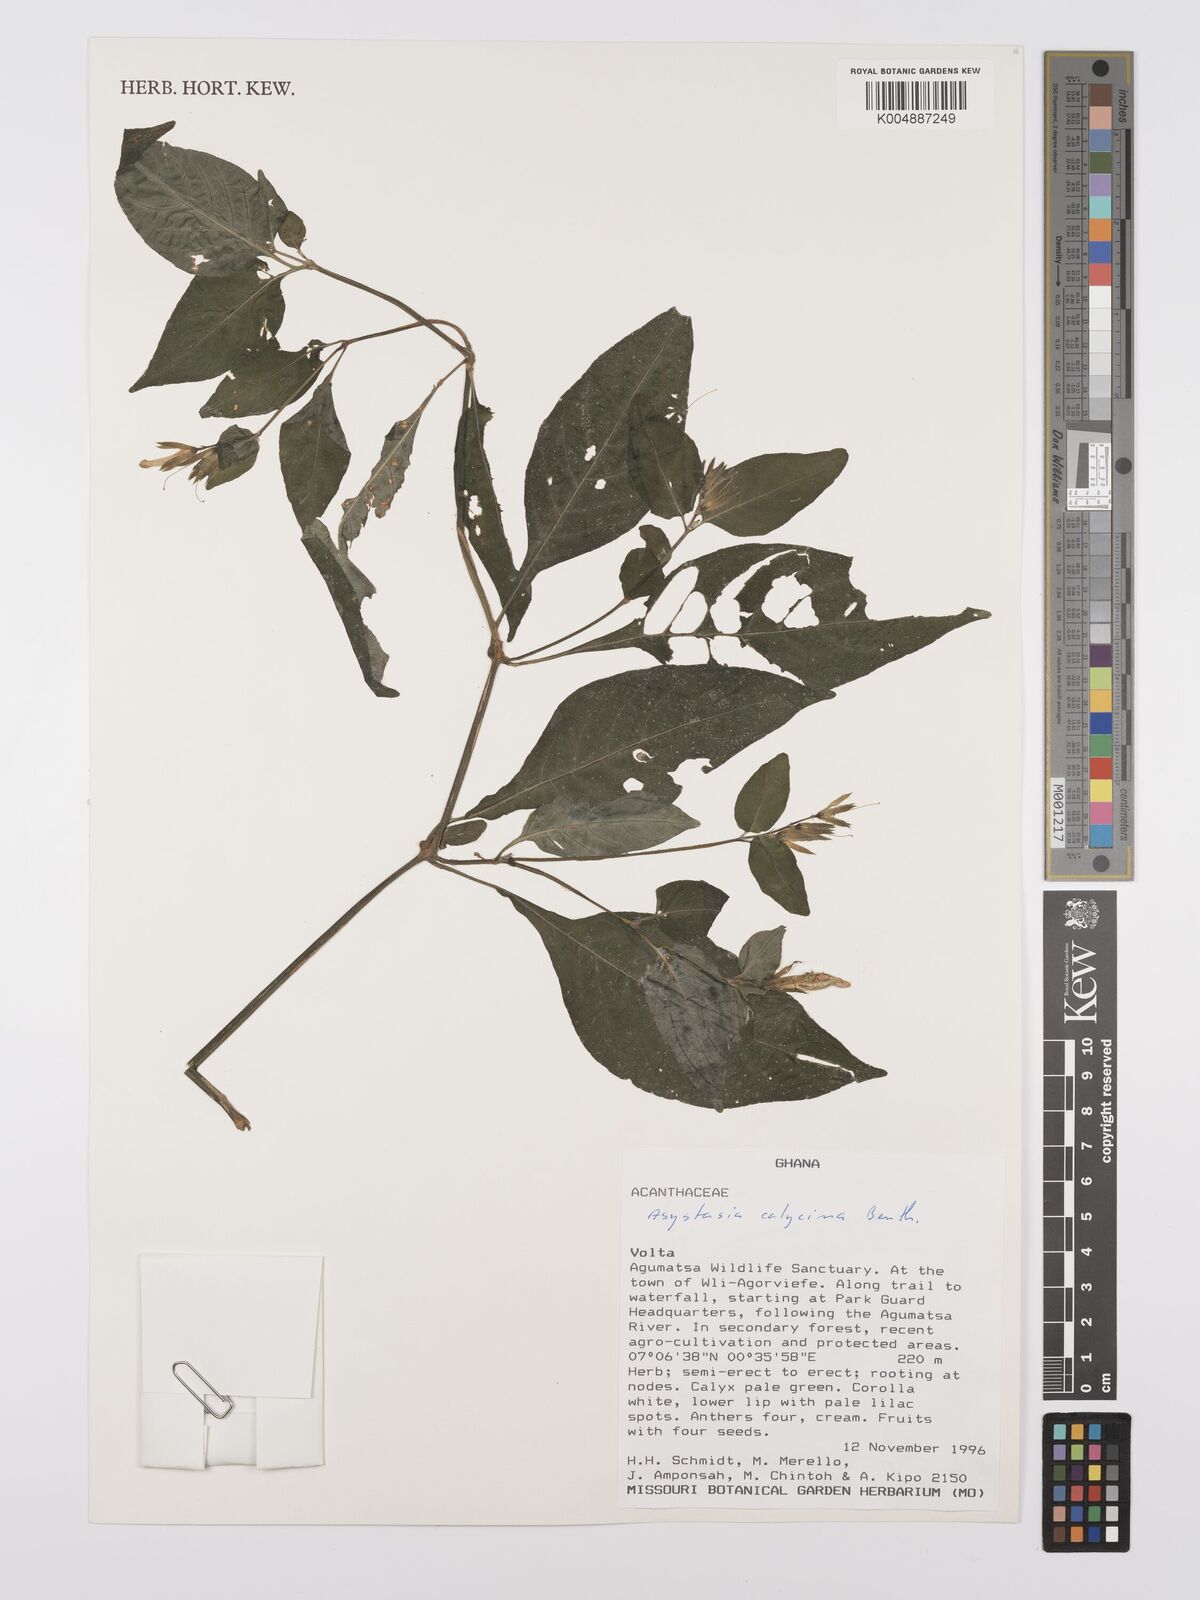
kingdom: Plantae
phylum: Tracheophyta
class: Magnoliopsida
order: Lamiales
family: Acanthaceae
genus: Asystasia
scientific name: Asystasia buettneri
